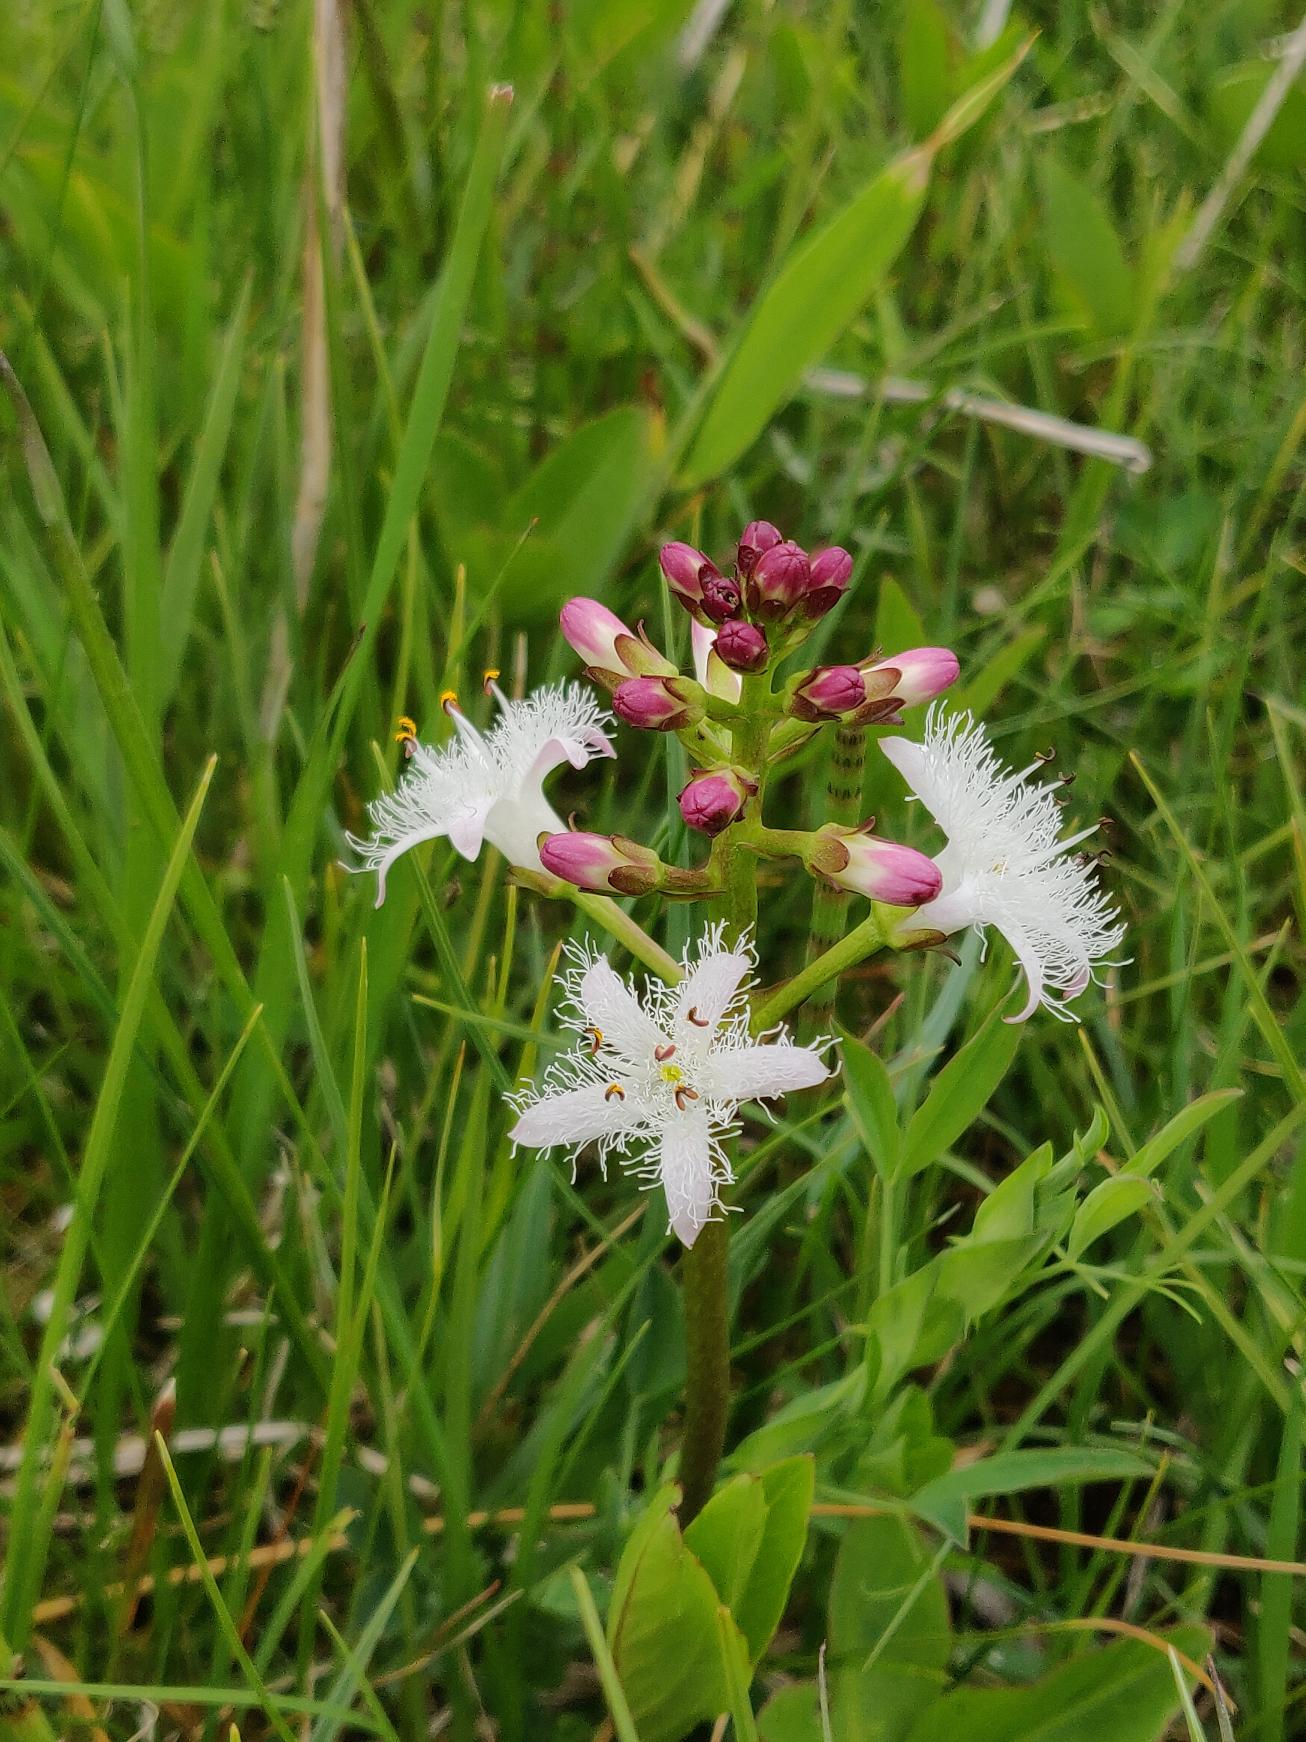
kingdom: Plantae
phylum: Tracheophyta
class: Magnoliopsida
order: Asterales
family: Menyanthaceae
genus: Menyanthes
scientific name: Menyanthes trifoliata
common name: Bukkeblad
